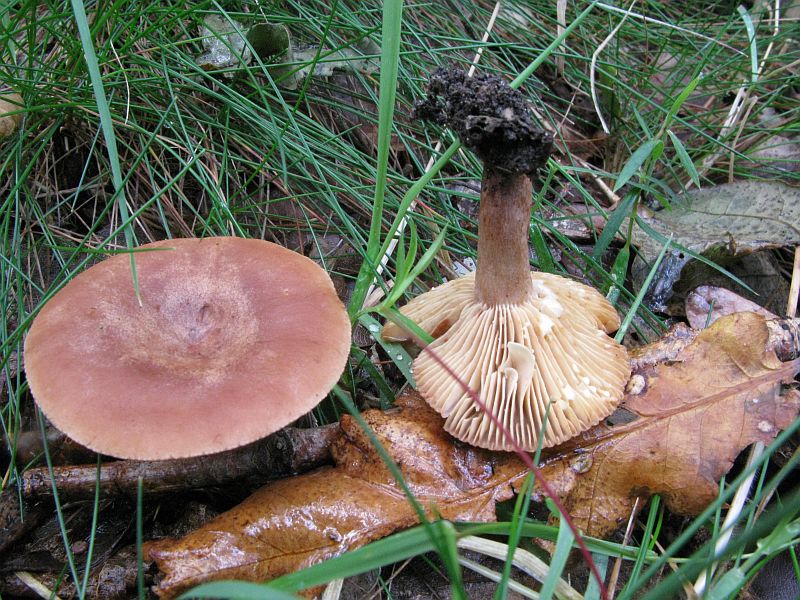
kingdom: Fungi
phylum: Basidiomycota
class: Agaricomycetes
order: Russulales
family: Russulaceae
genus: Lactarius
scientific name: Lactarius quietus
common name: ege-mælkehat
